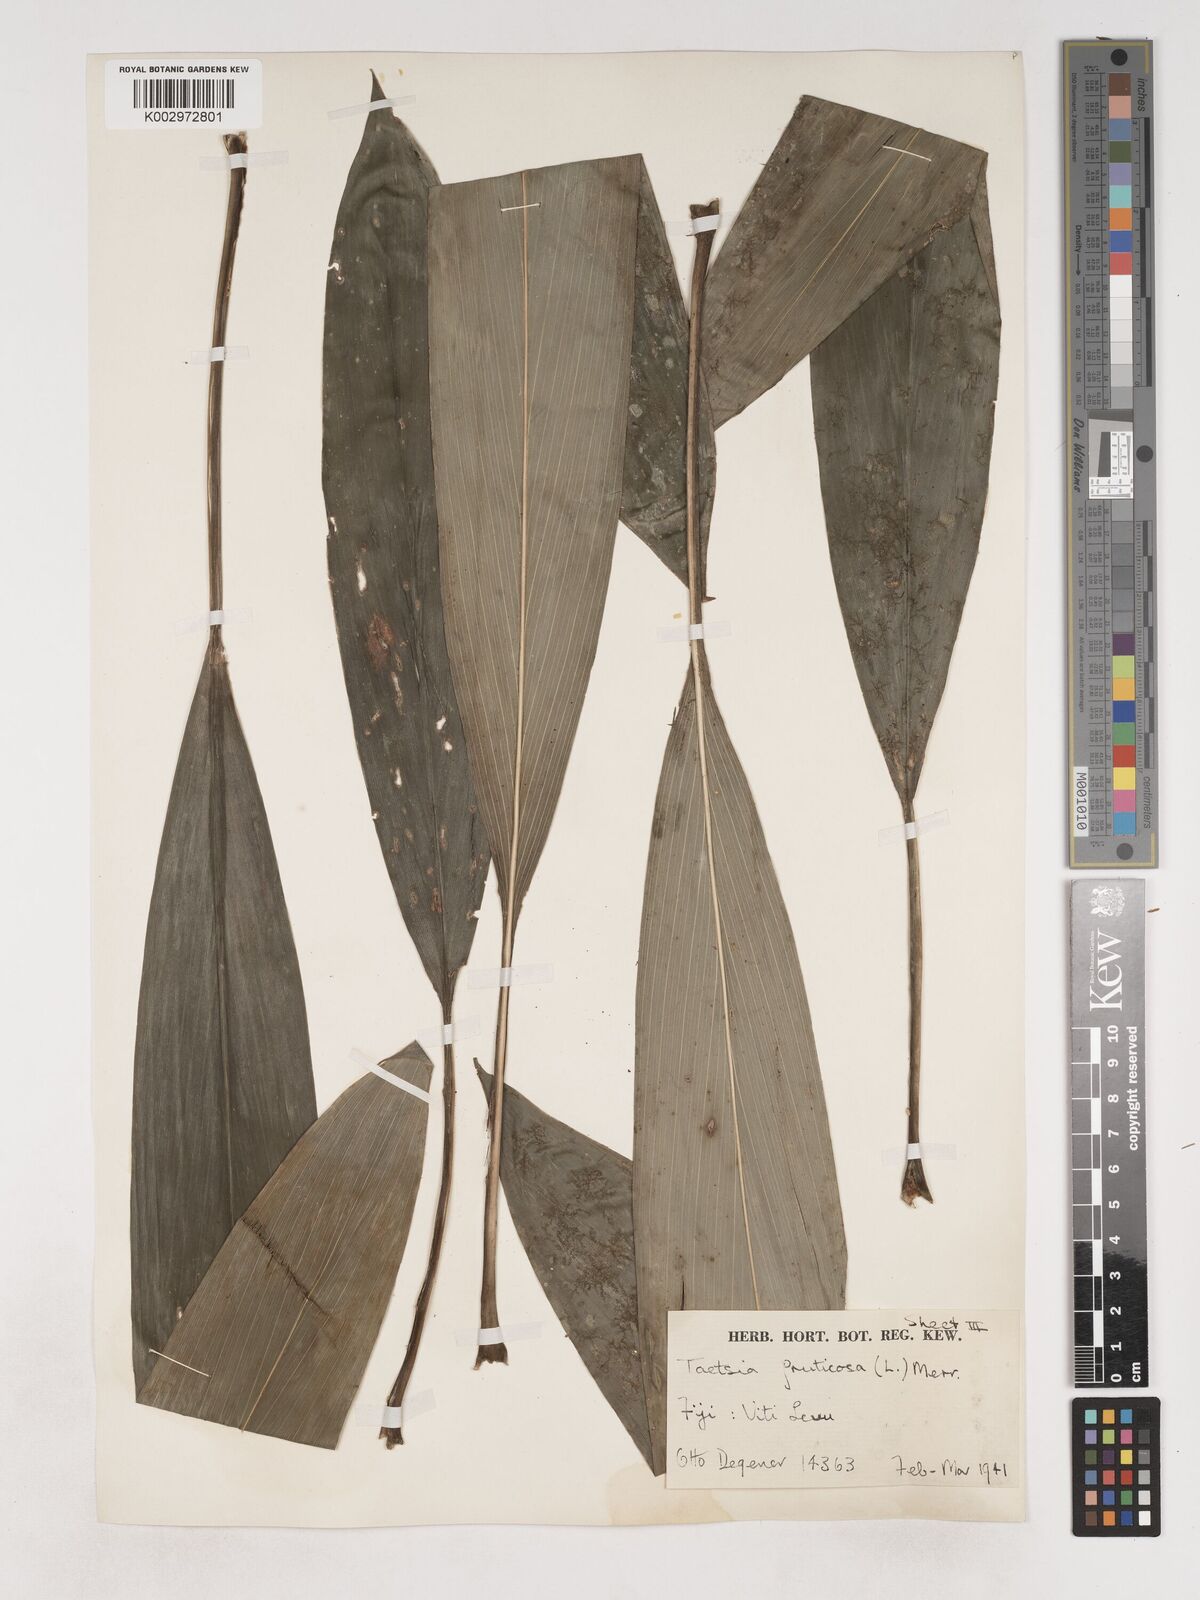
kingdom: Plantae
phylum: Tracheophyta
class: Liliopsida
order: Asparagales
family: Asparagaceae
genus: Cordyline
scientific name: Cordyline fruticosa
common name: Good-luck-plant
